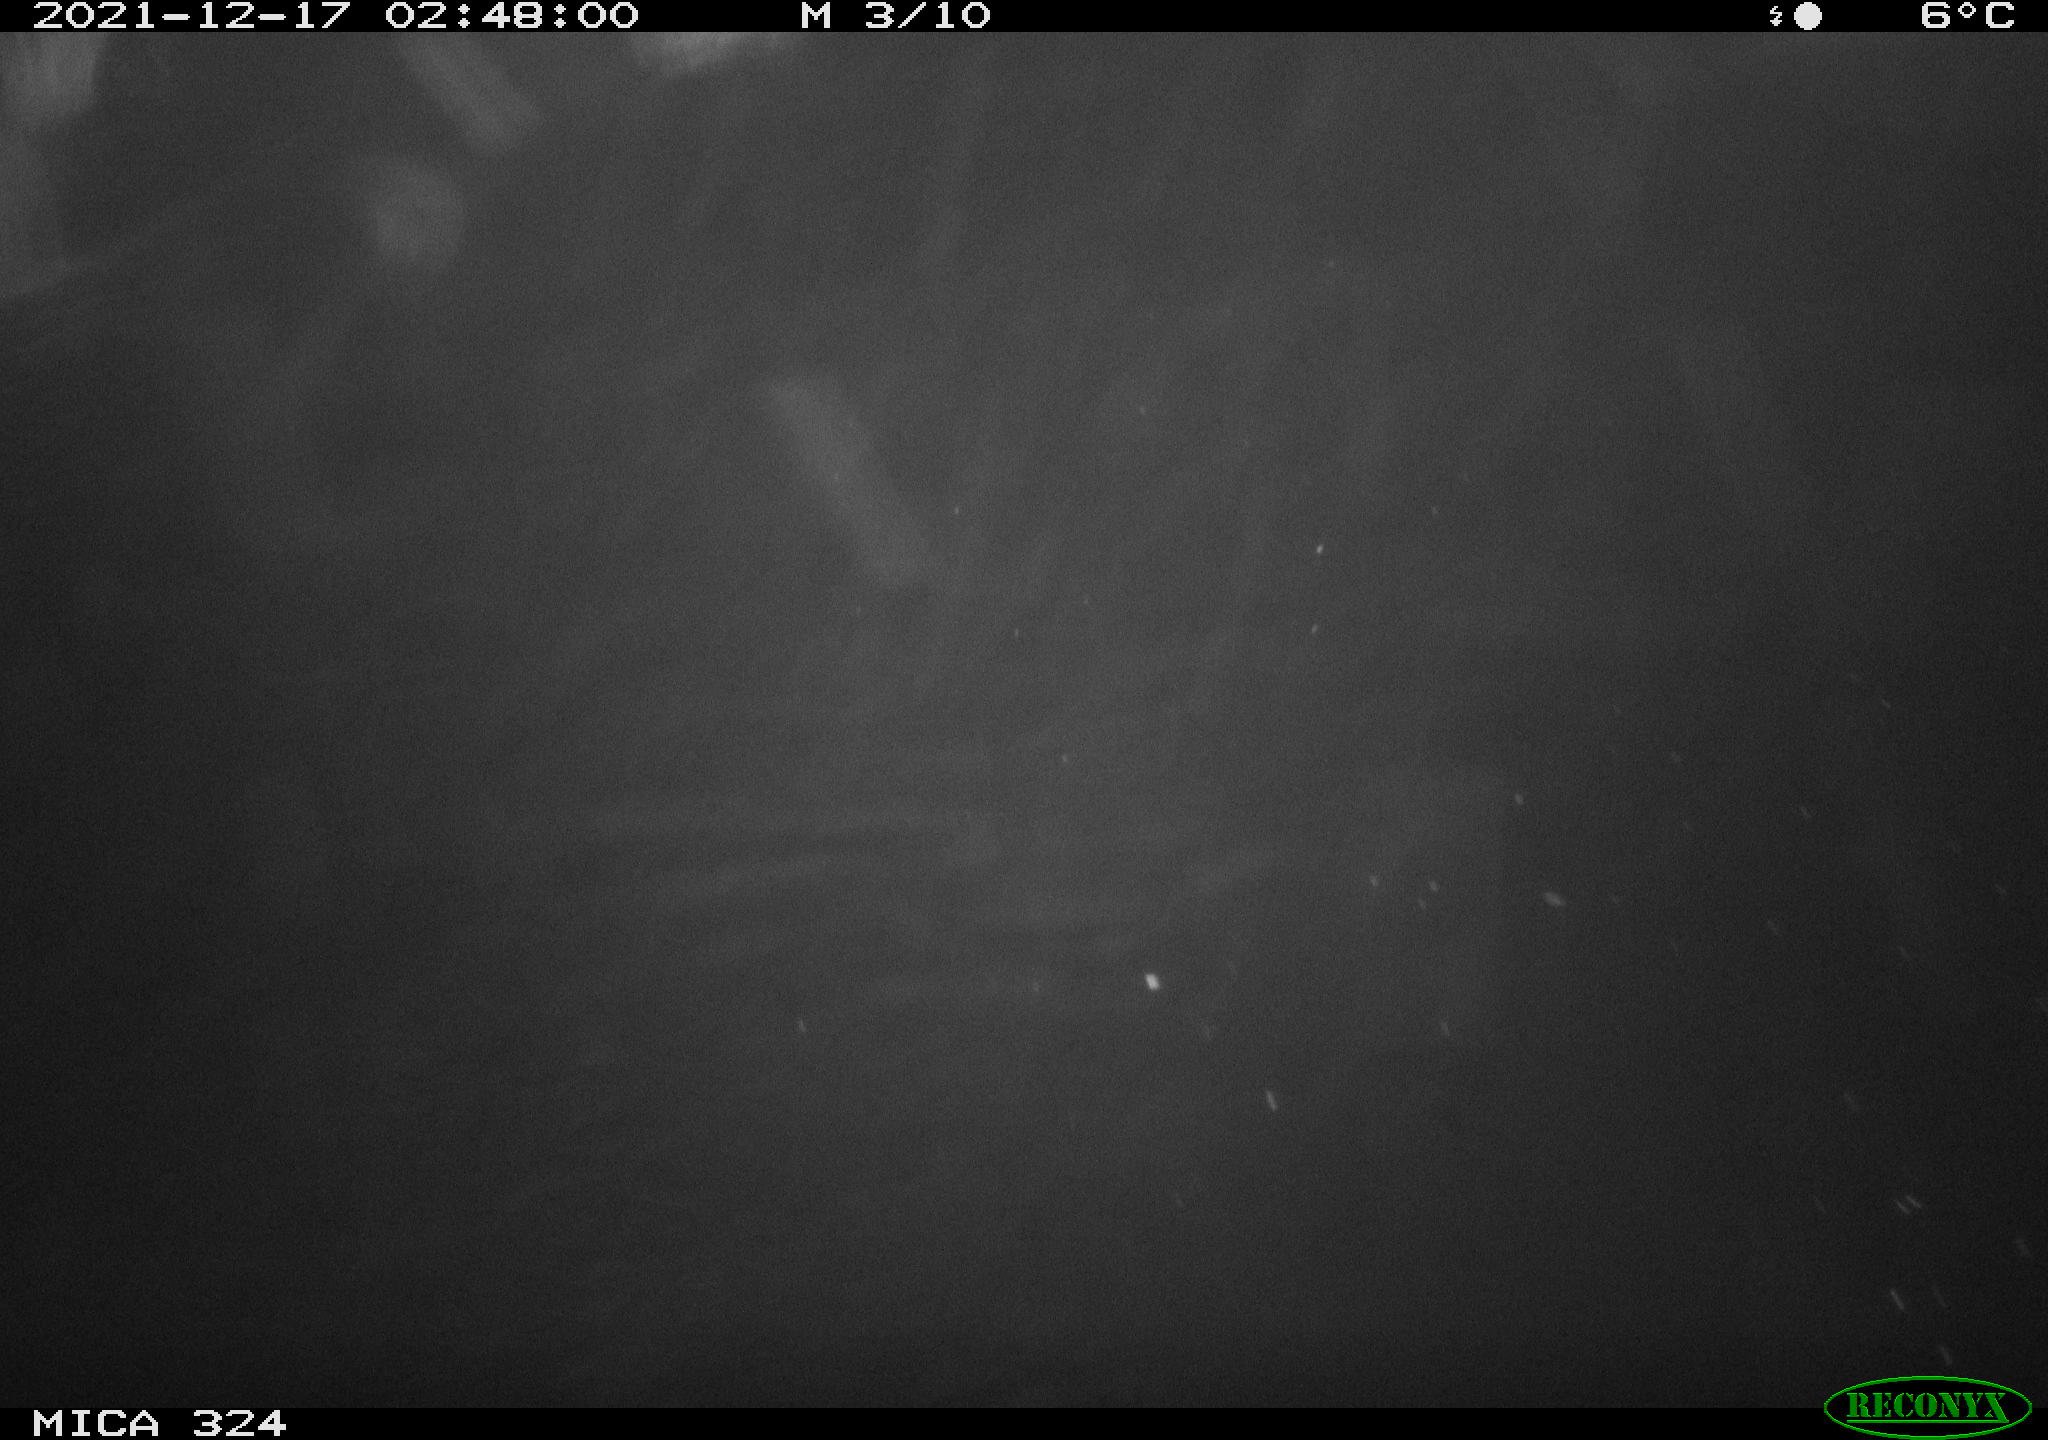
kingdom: Animalia
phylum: Chordata
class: Mammalia
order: Rodentia
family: Myocastoridae
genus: Myocastor
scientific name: Myocastor coypus
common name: Coypu
